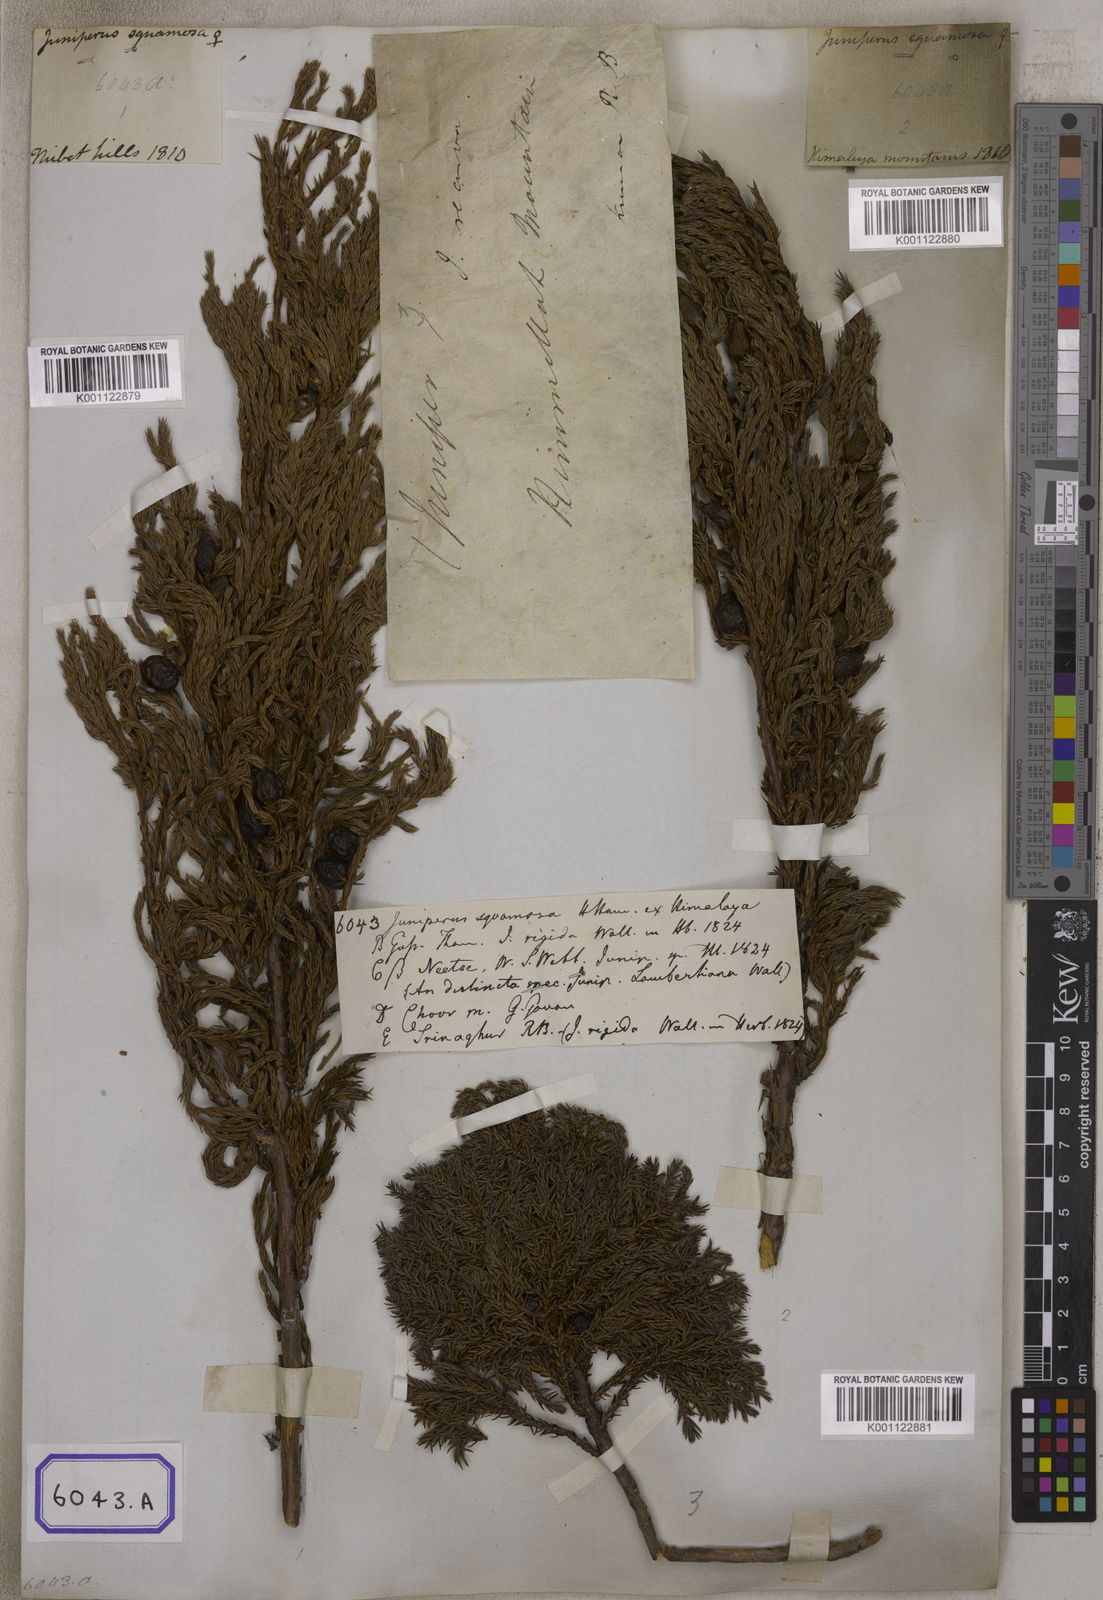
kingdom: Plantae
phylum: Tracheophyta
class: Pinopsida
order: Pinales
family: Cupressaceae
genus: Juniperus
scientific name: Juniperus
